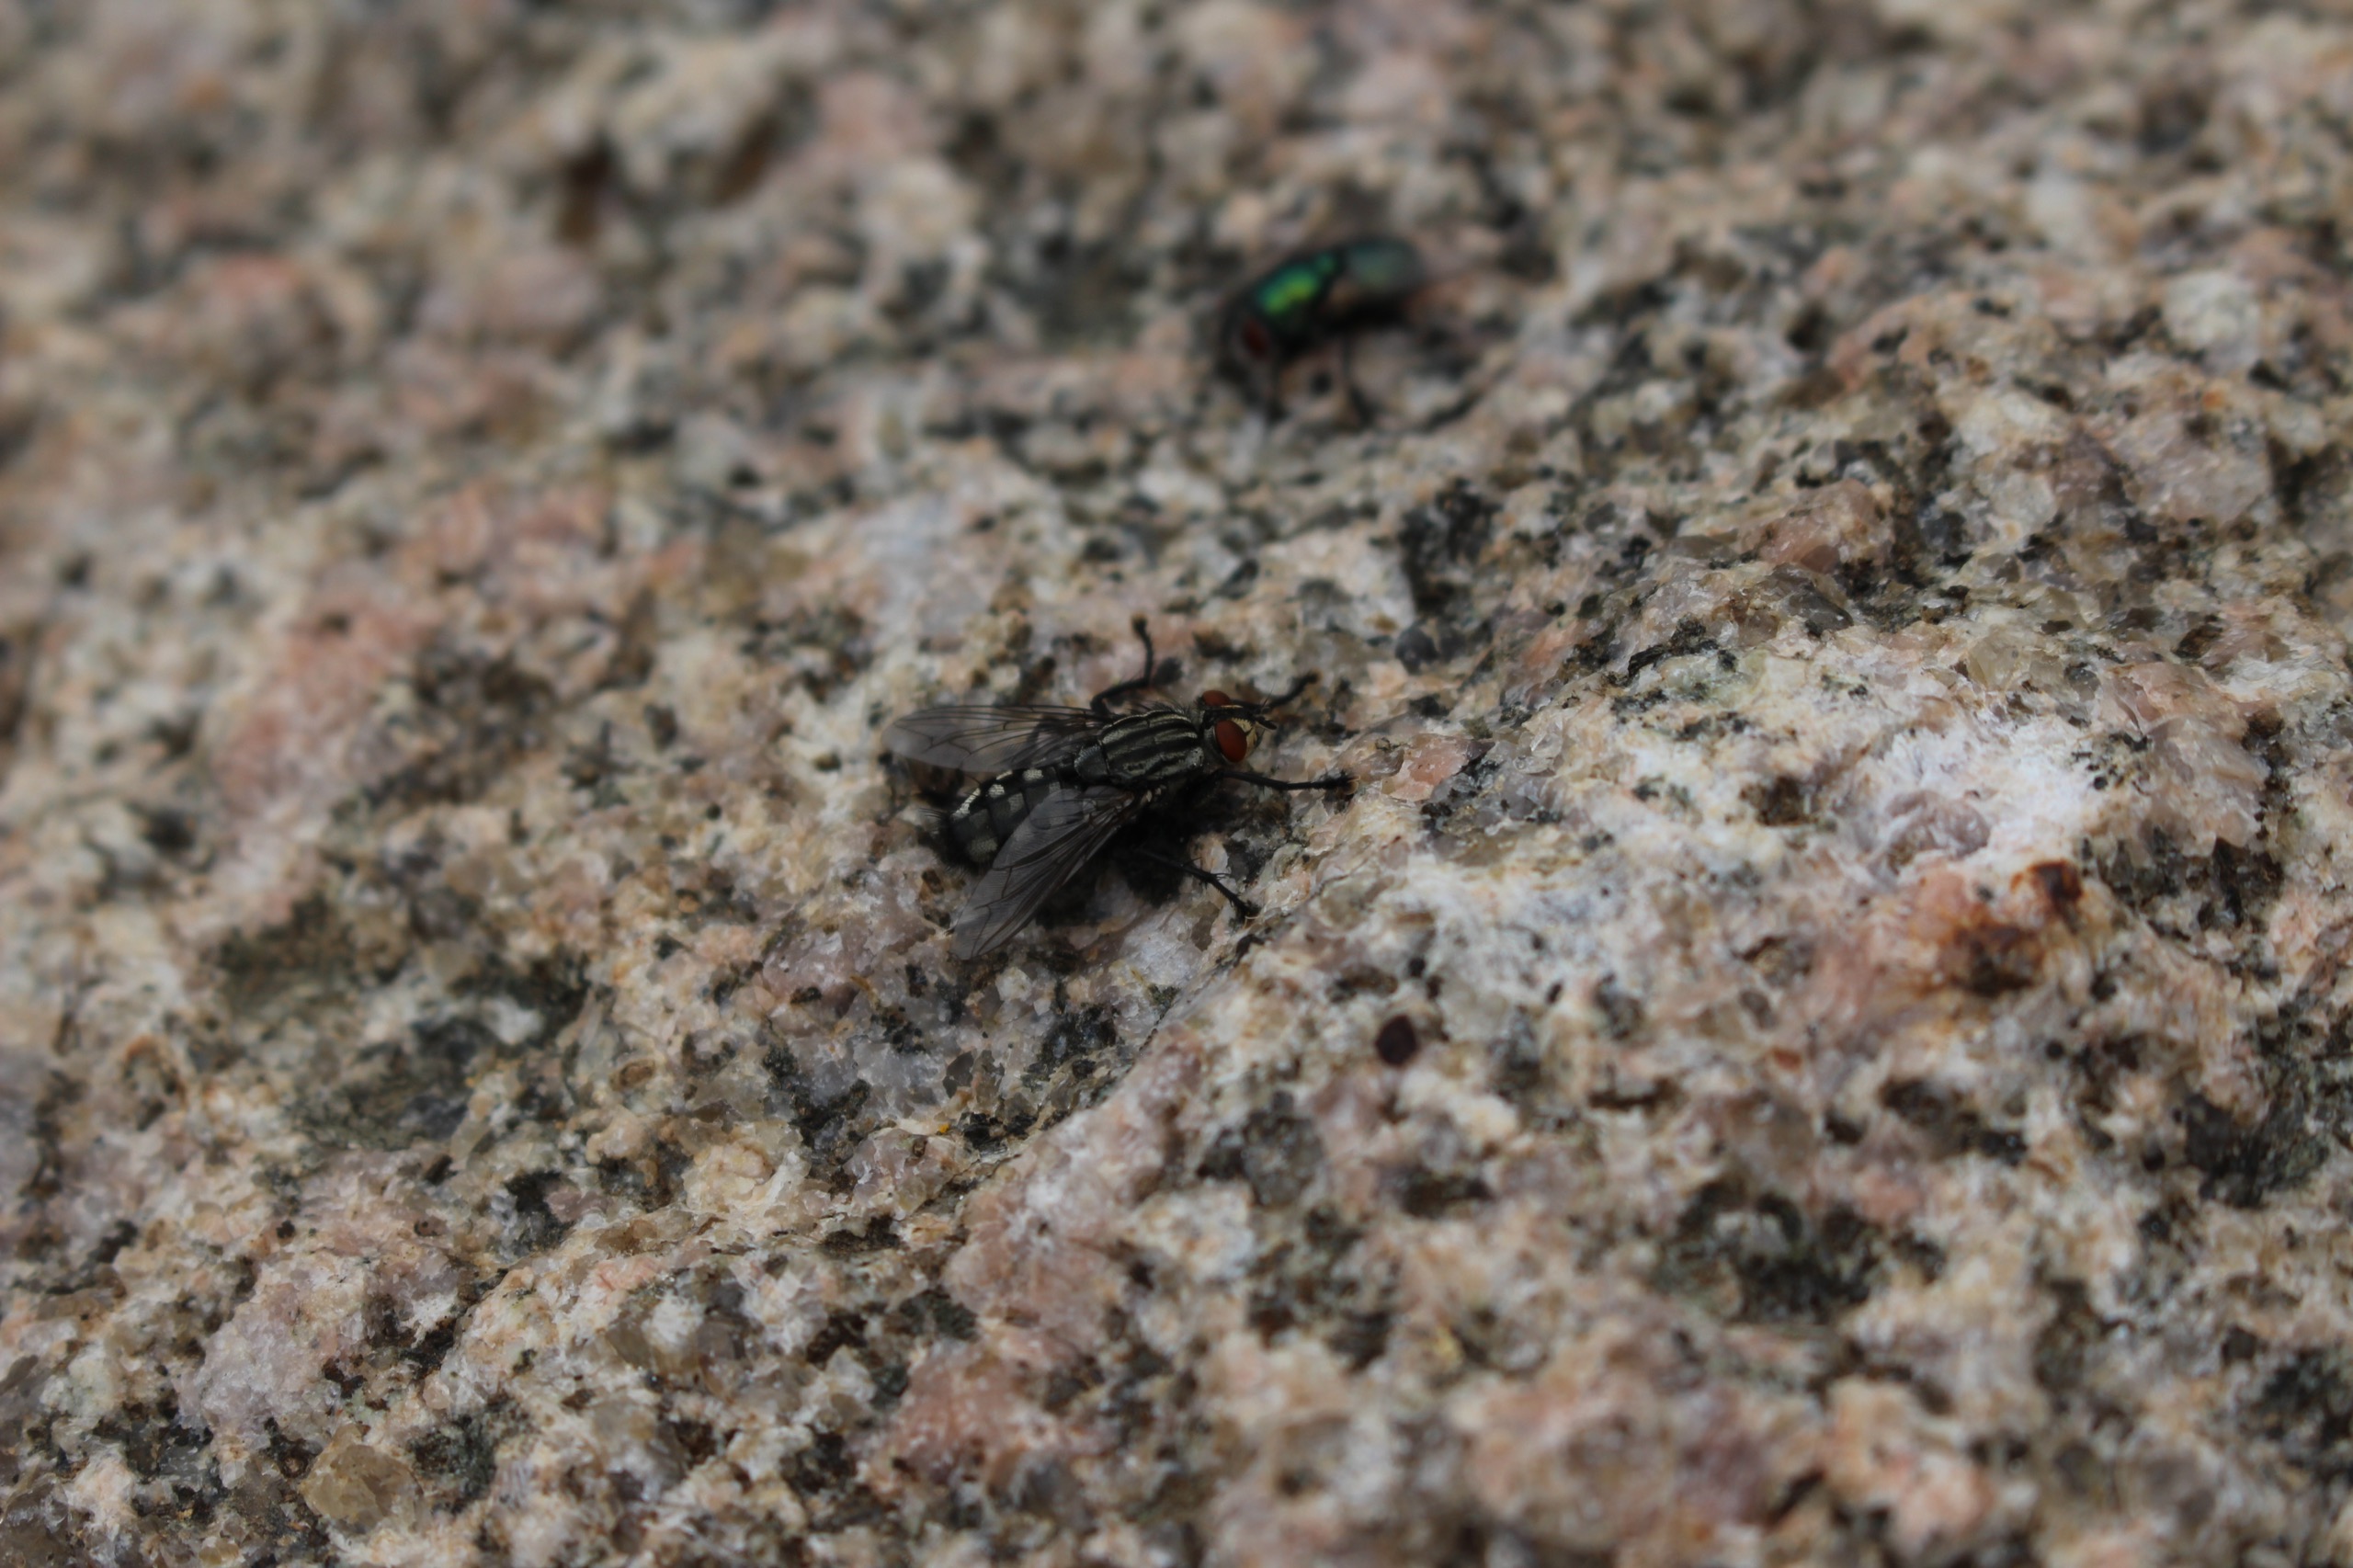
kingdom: Animalia
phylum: Arthropoda
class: Insecta
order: Diptera
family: Sarcophagidae
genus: Sarcophaga
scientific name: Sarcophaga
